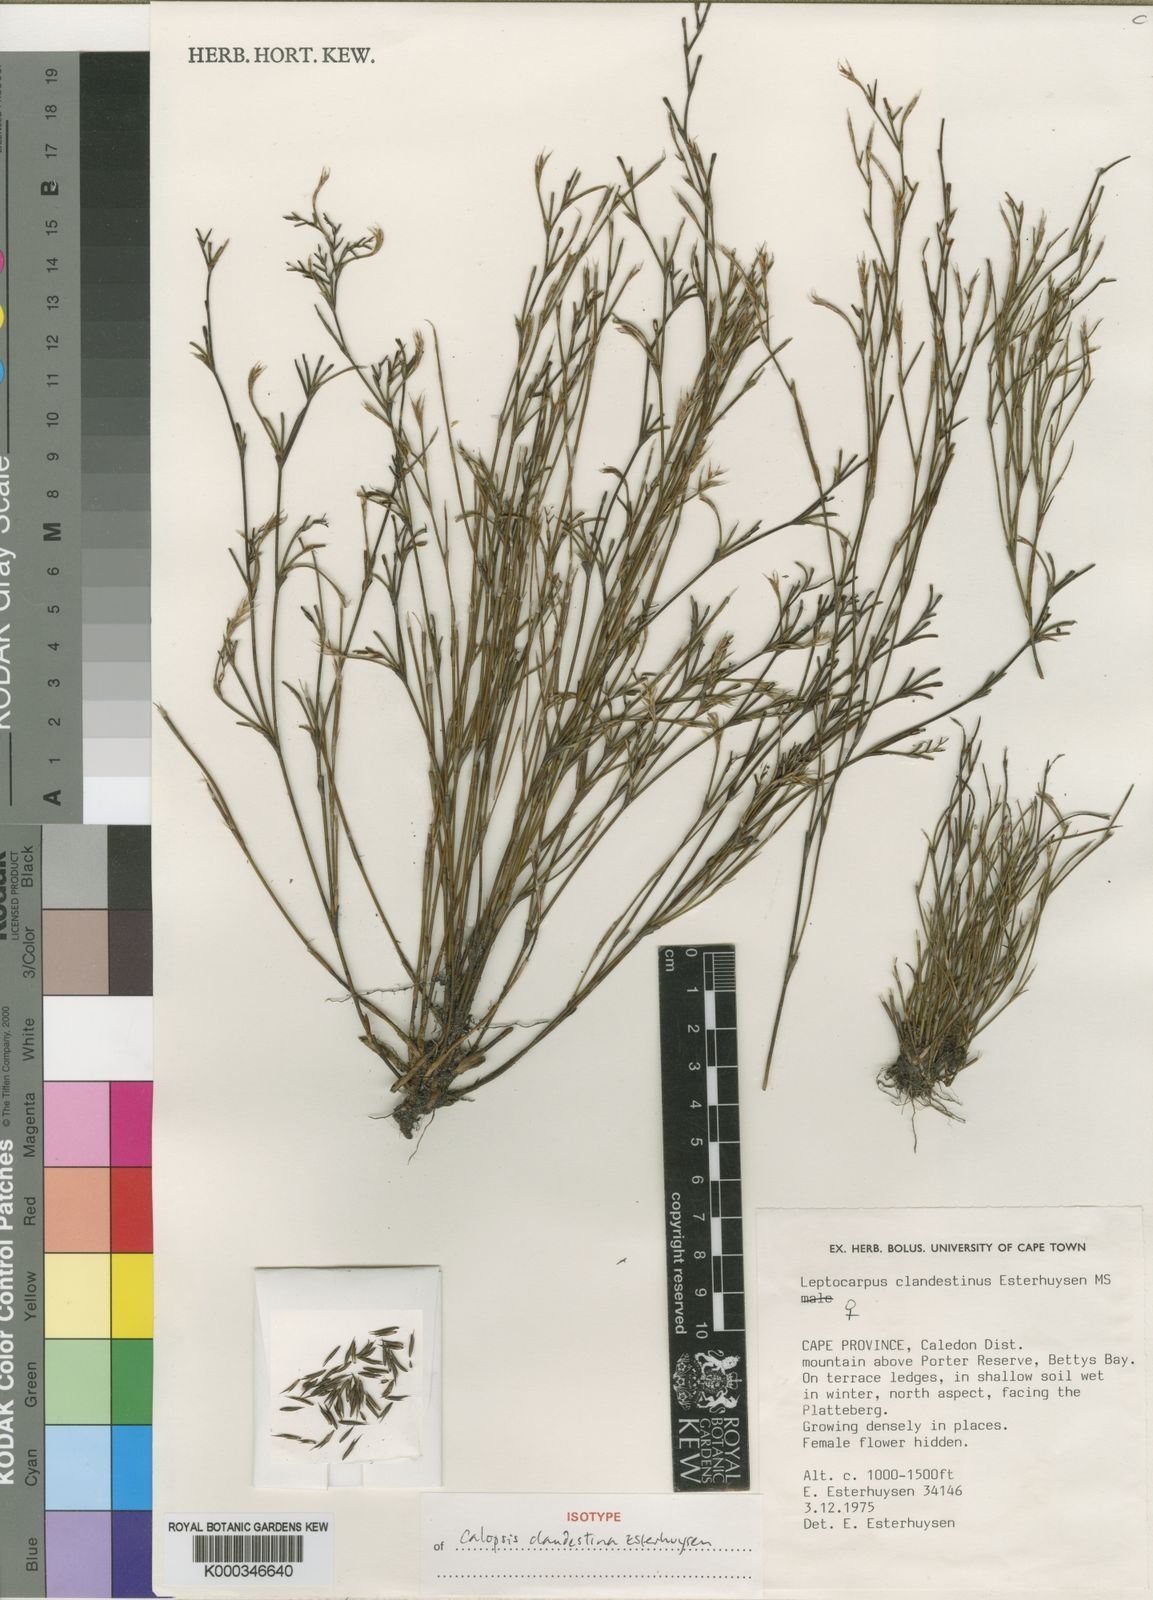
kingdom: Plantae
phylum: Tracheophyta
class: Liliopsida
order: Poales
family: Restionaceae
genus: Restio
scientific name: Restio clandestinus
